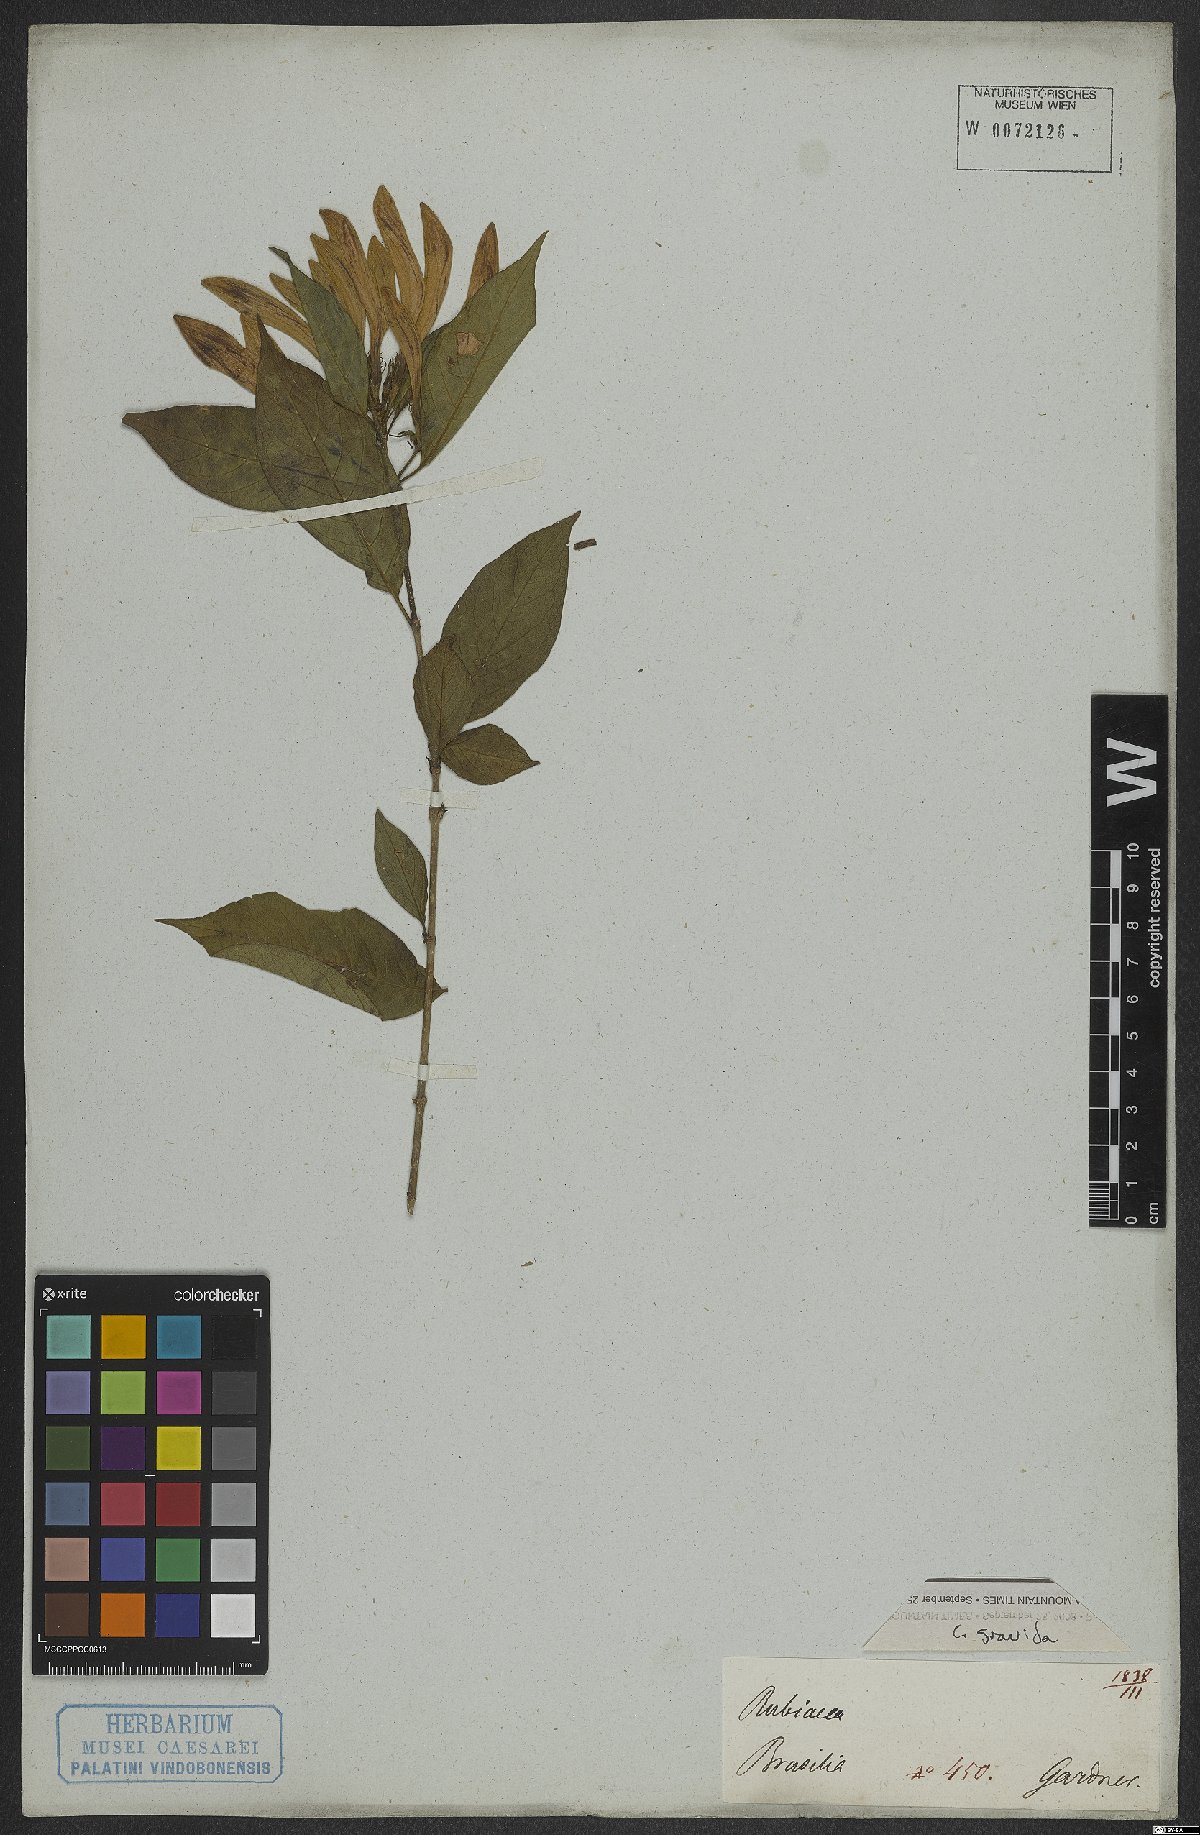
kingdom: Plantae
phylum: Tracheophyta
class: Magnoliopsida
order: Gentianales
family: Rubiaceae
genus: Coutarea
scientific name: Coutarea
